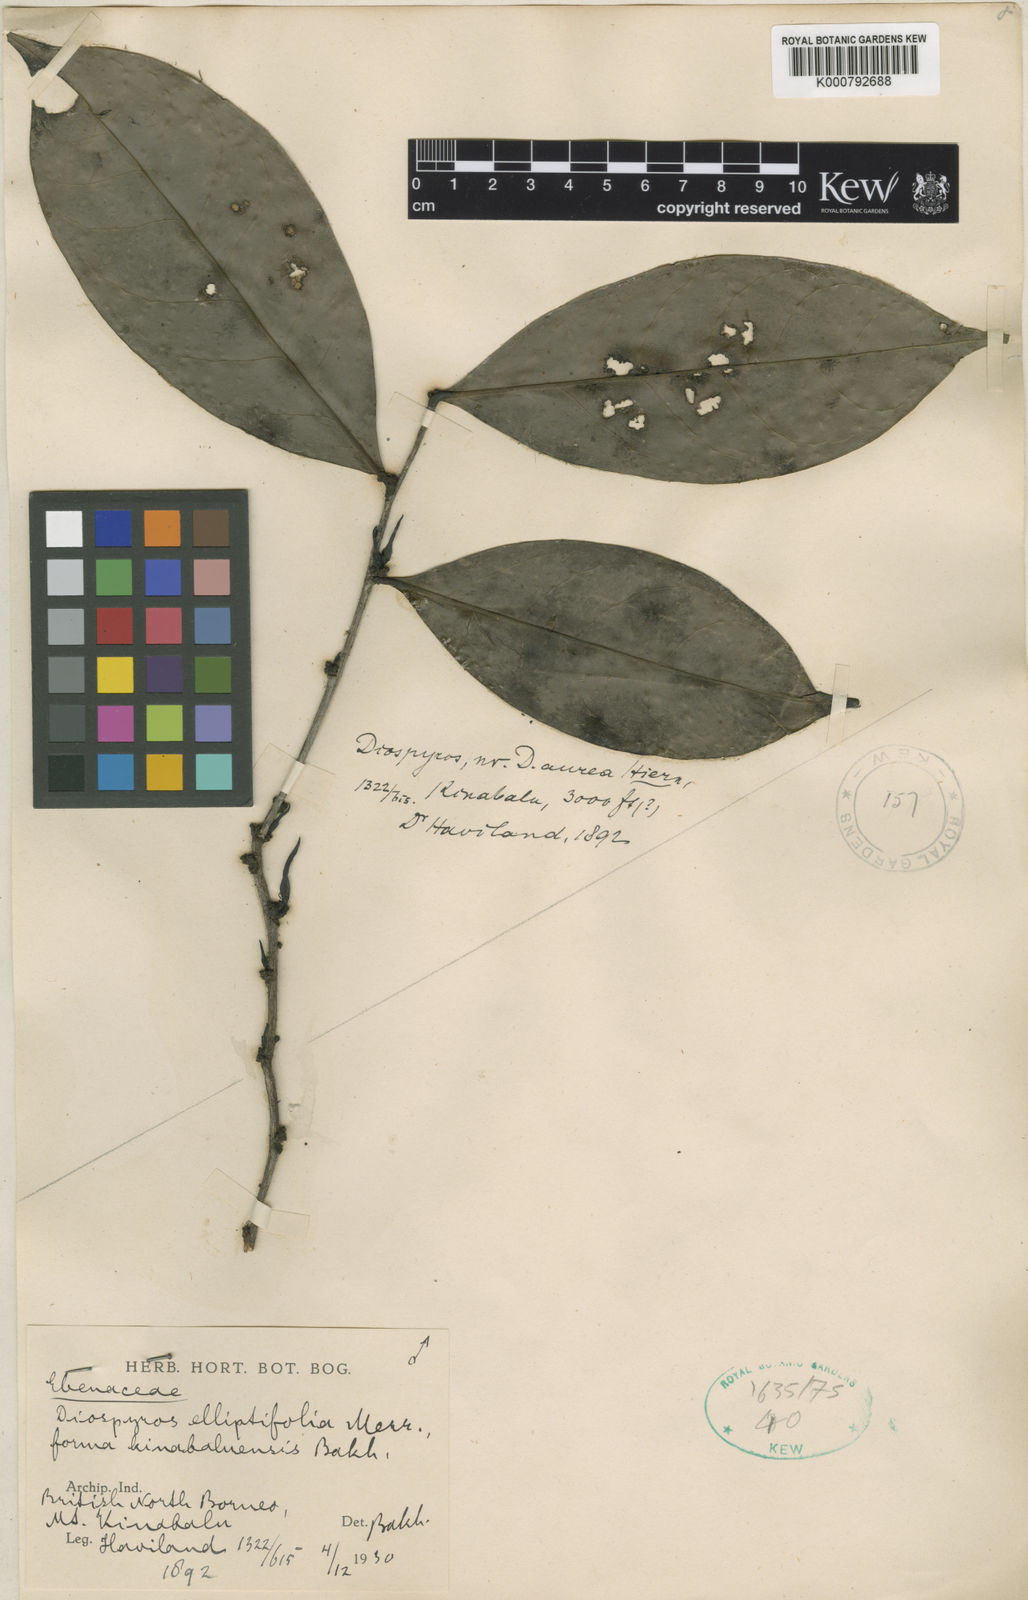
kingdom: Plantae
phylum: Tracheophyta
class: Magnoliopsida
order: Ericales
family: Ebenaceae
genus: Diospyros
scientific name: Diospyros elliptifolia
